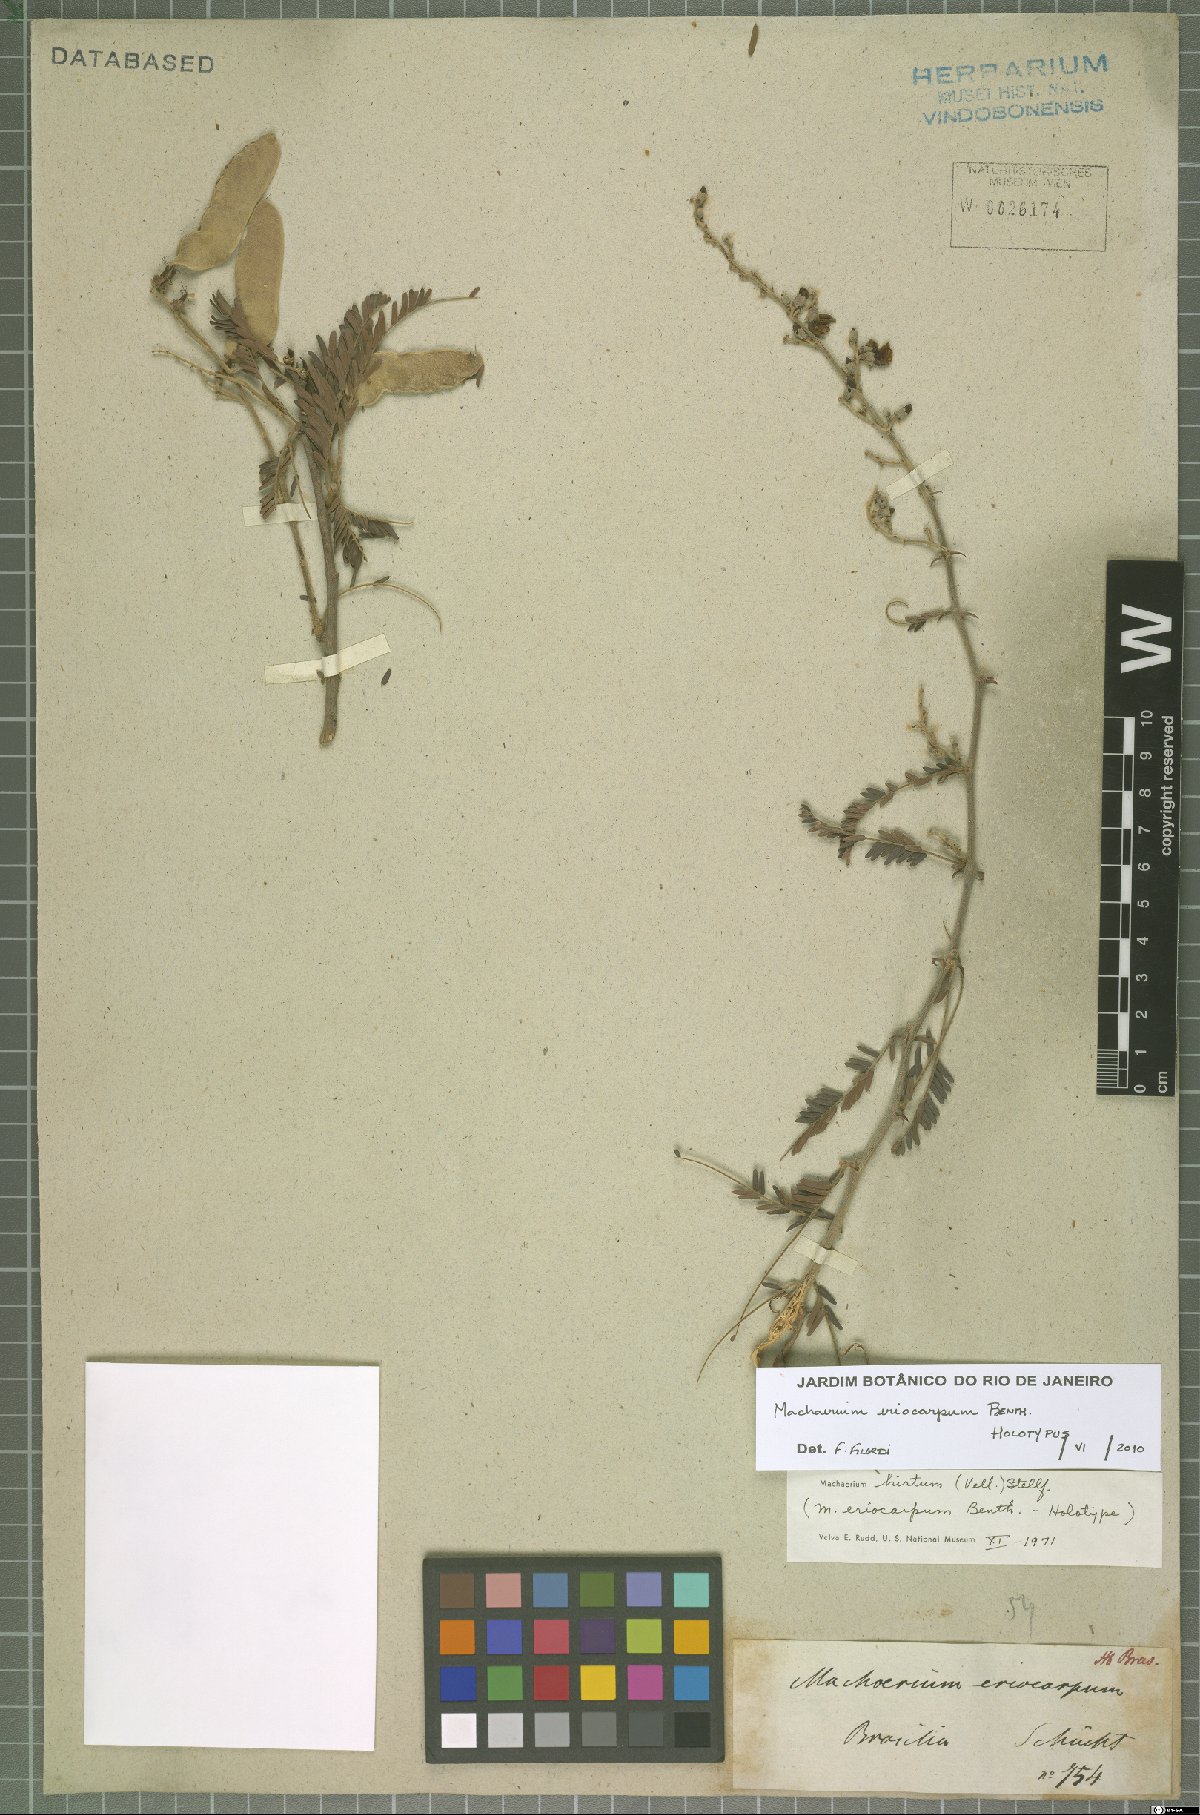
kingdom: Plantae
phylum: Tracheophyta
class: Magnoliopsida
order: Fabales
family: Fabaceae
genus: Machaerium
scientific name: Machaerium eriocarpum
